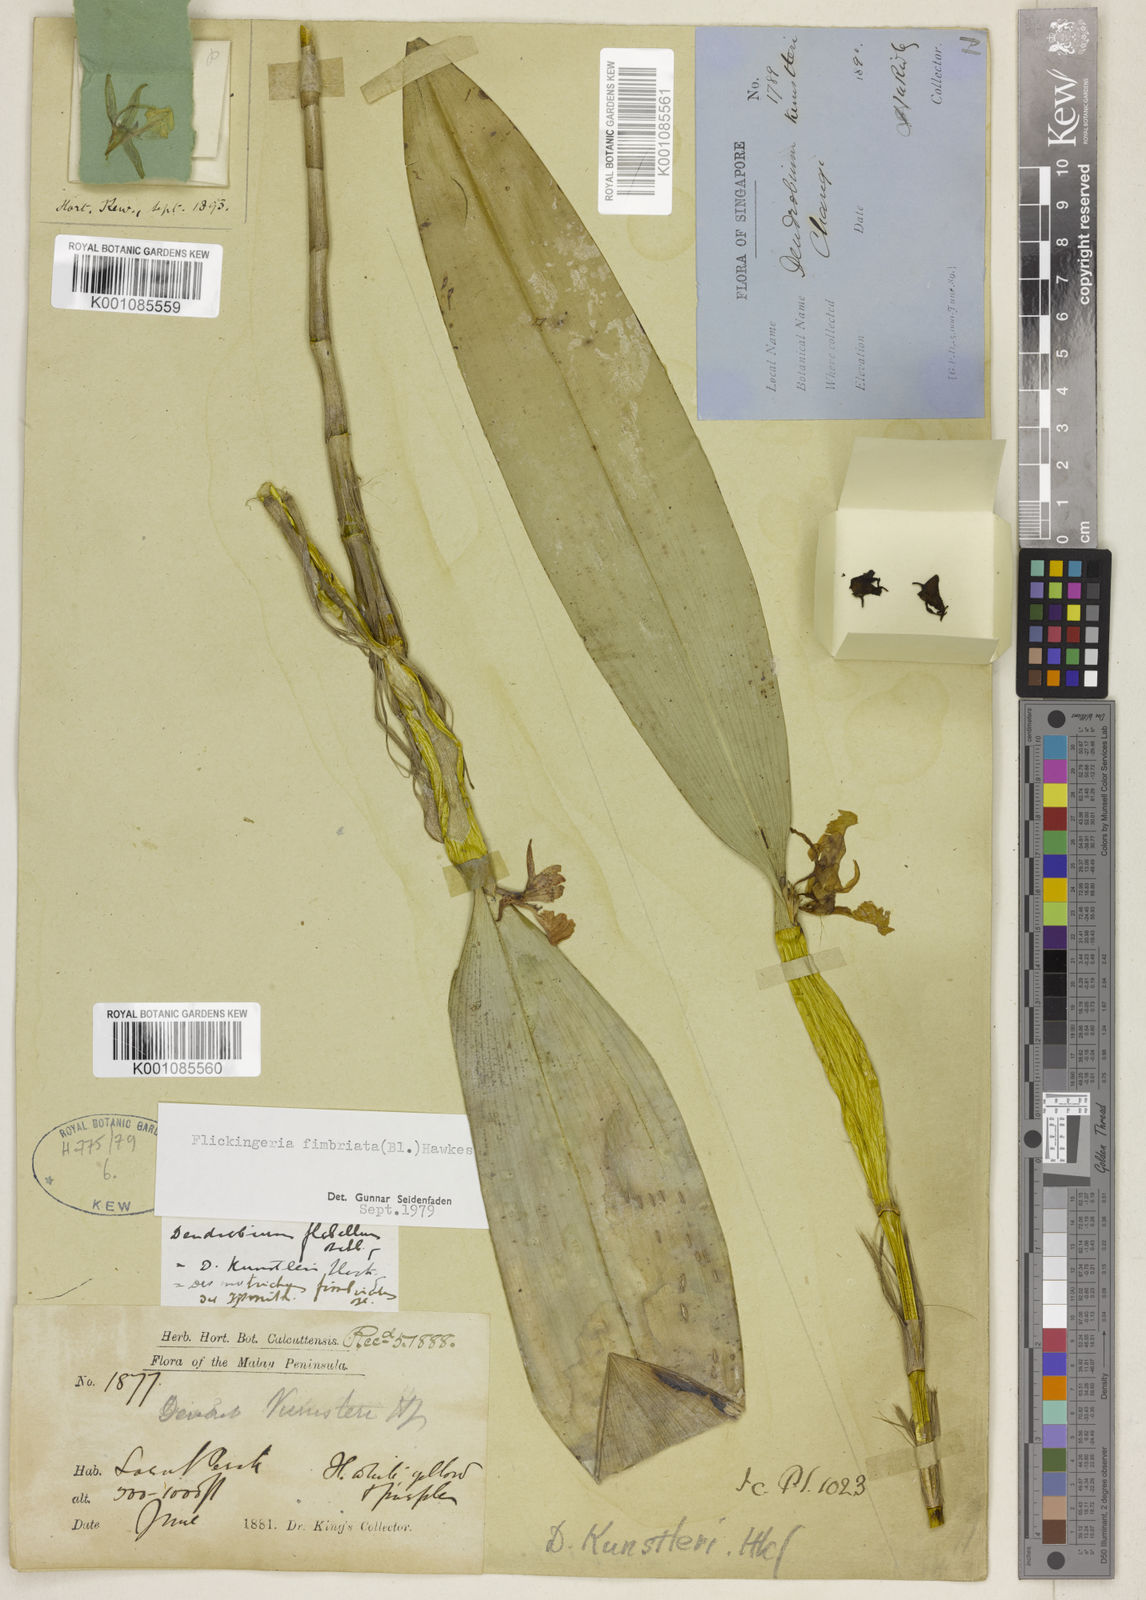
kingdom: Plantae
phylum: Tracheophyta
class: Liliopsida
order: Asparagales
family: Orchidaceae
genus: Dendrobium
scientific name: Dendrobium plicatile
